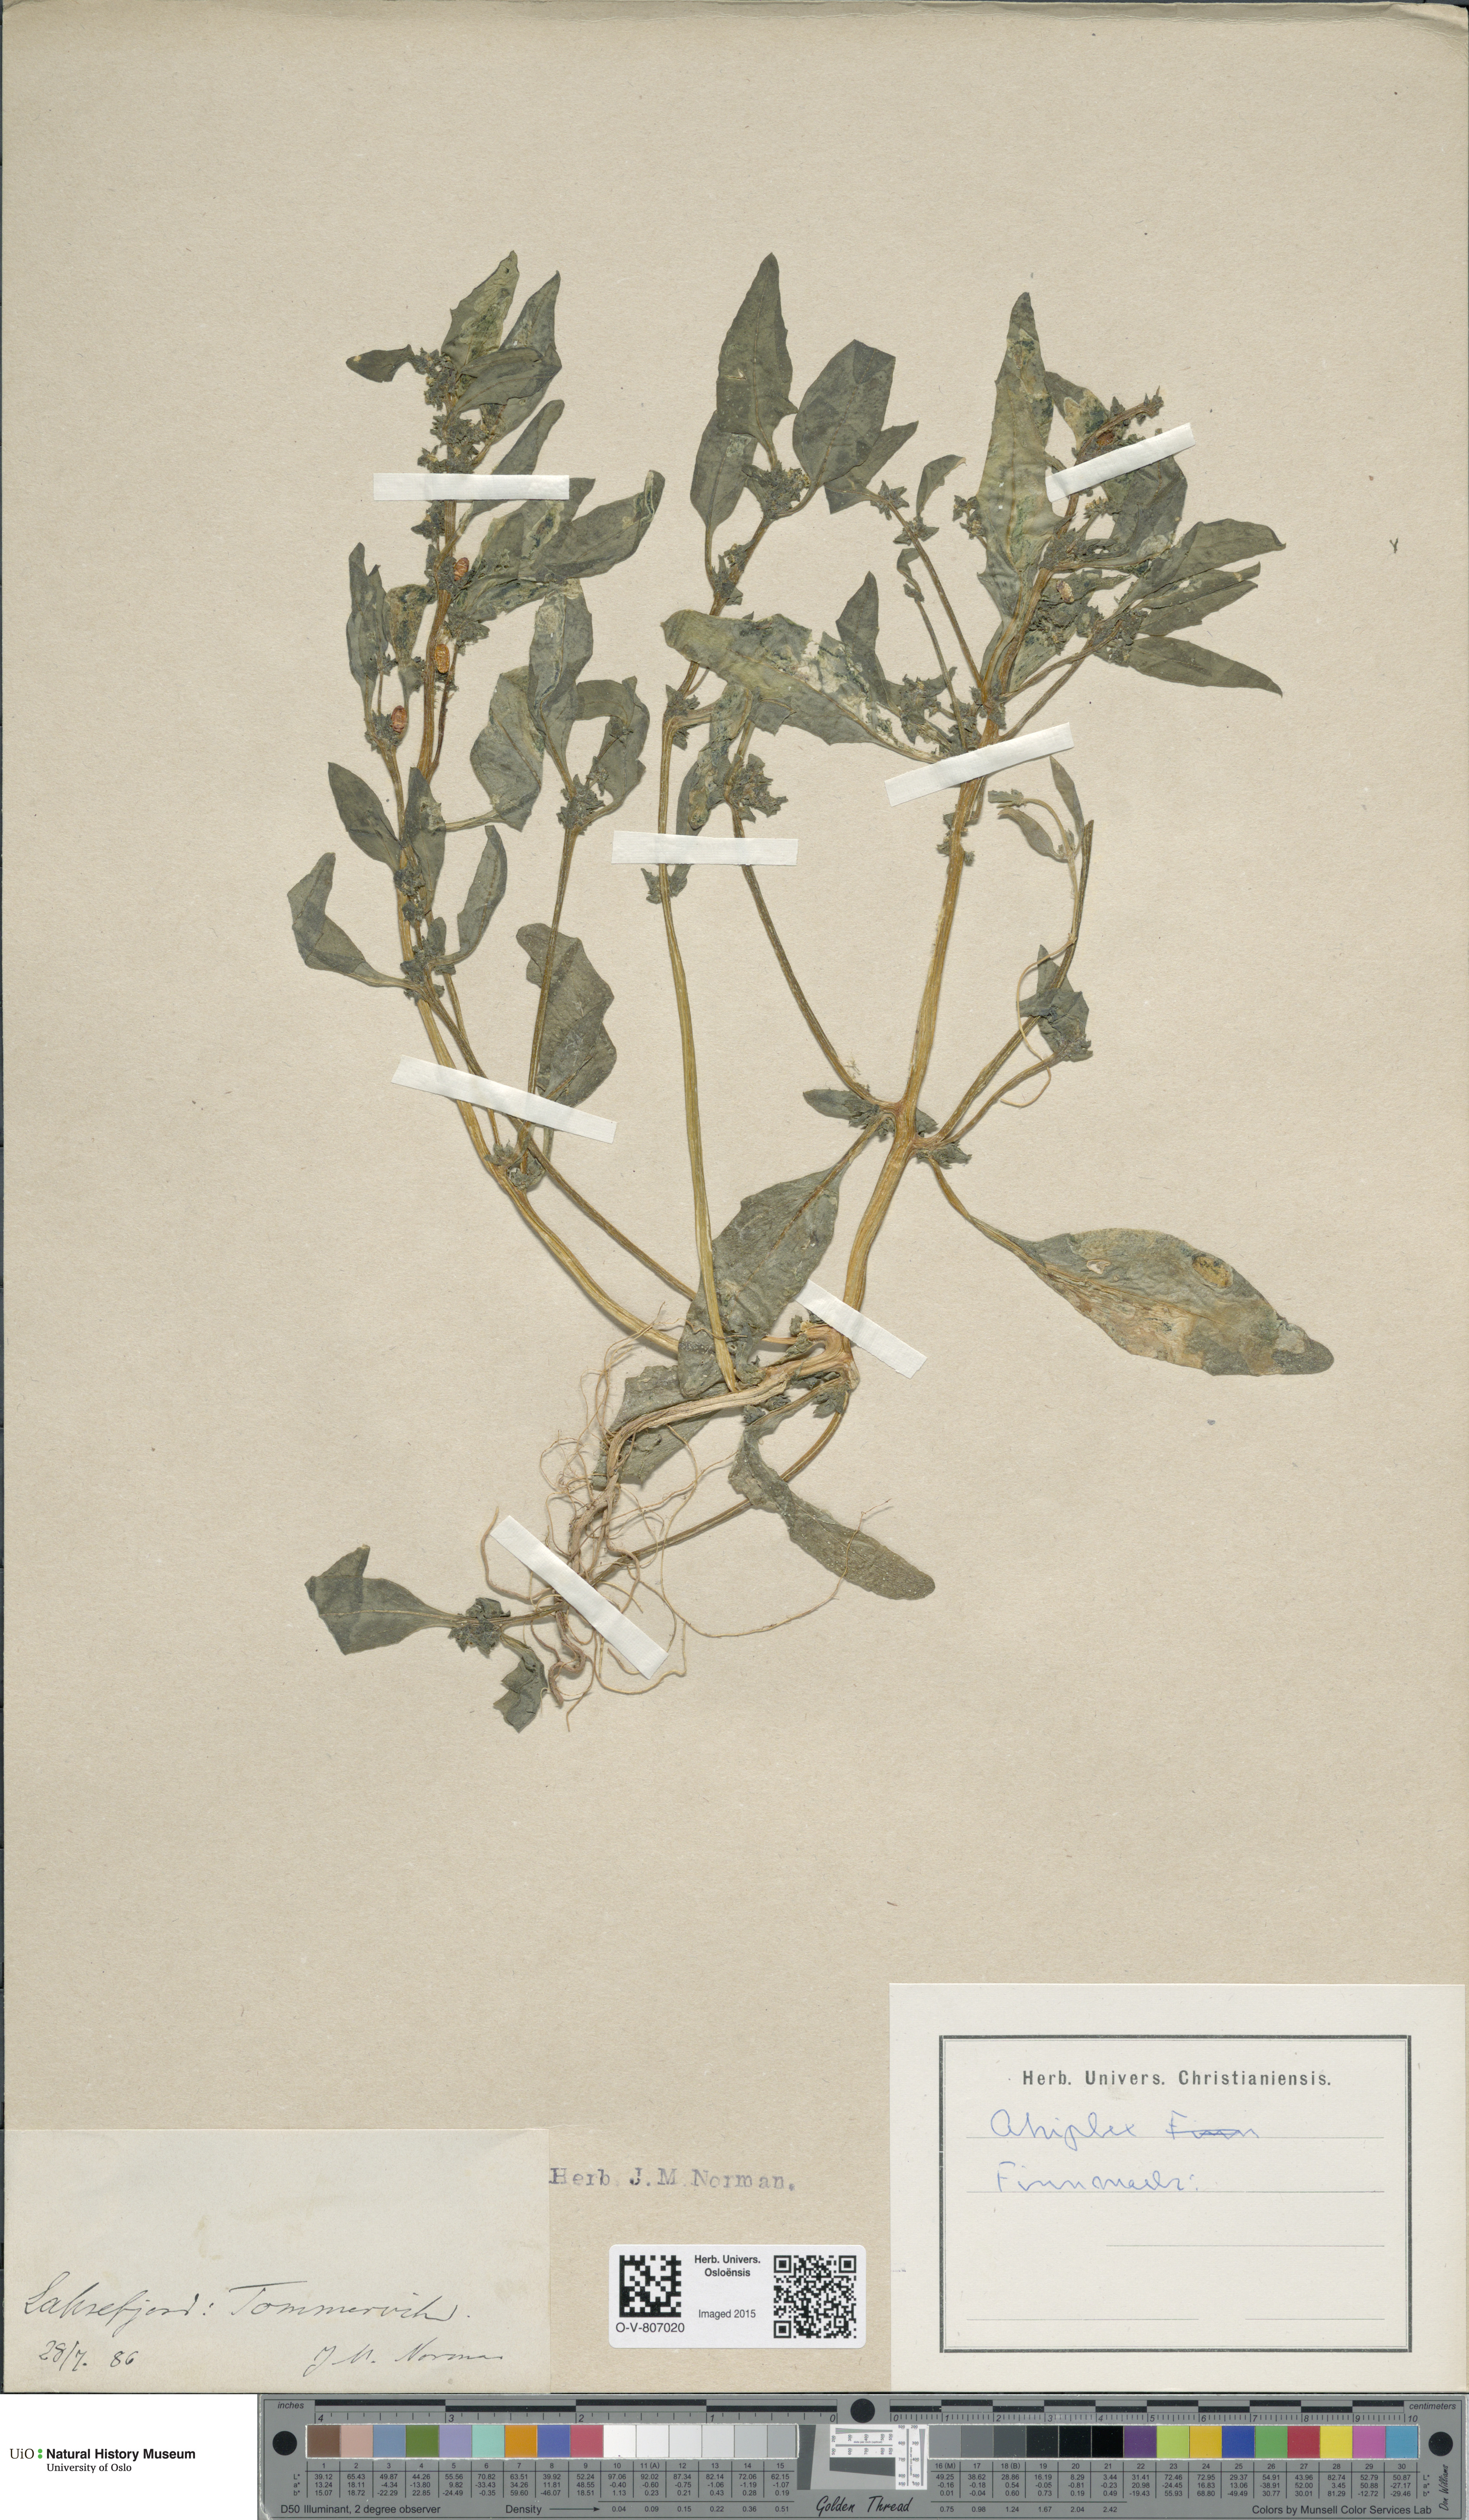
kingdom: Plantae
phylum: Tracheophyta
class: Magnoliopsida
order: Caryophyllales
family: Amaranthaceae
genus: Atriplex
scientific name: Atriplex
